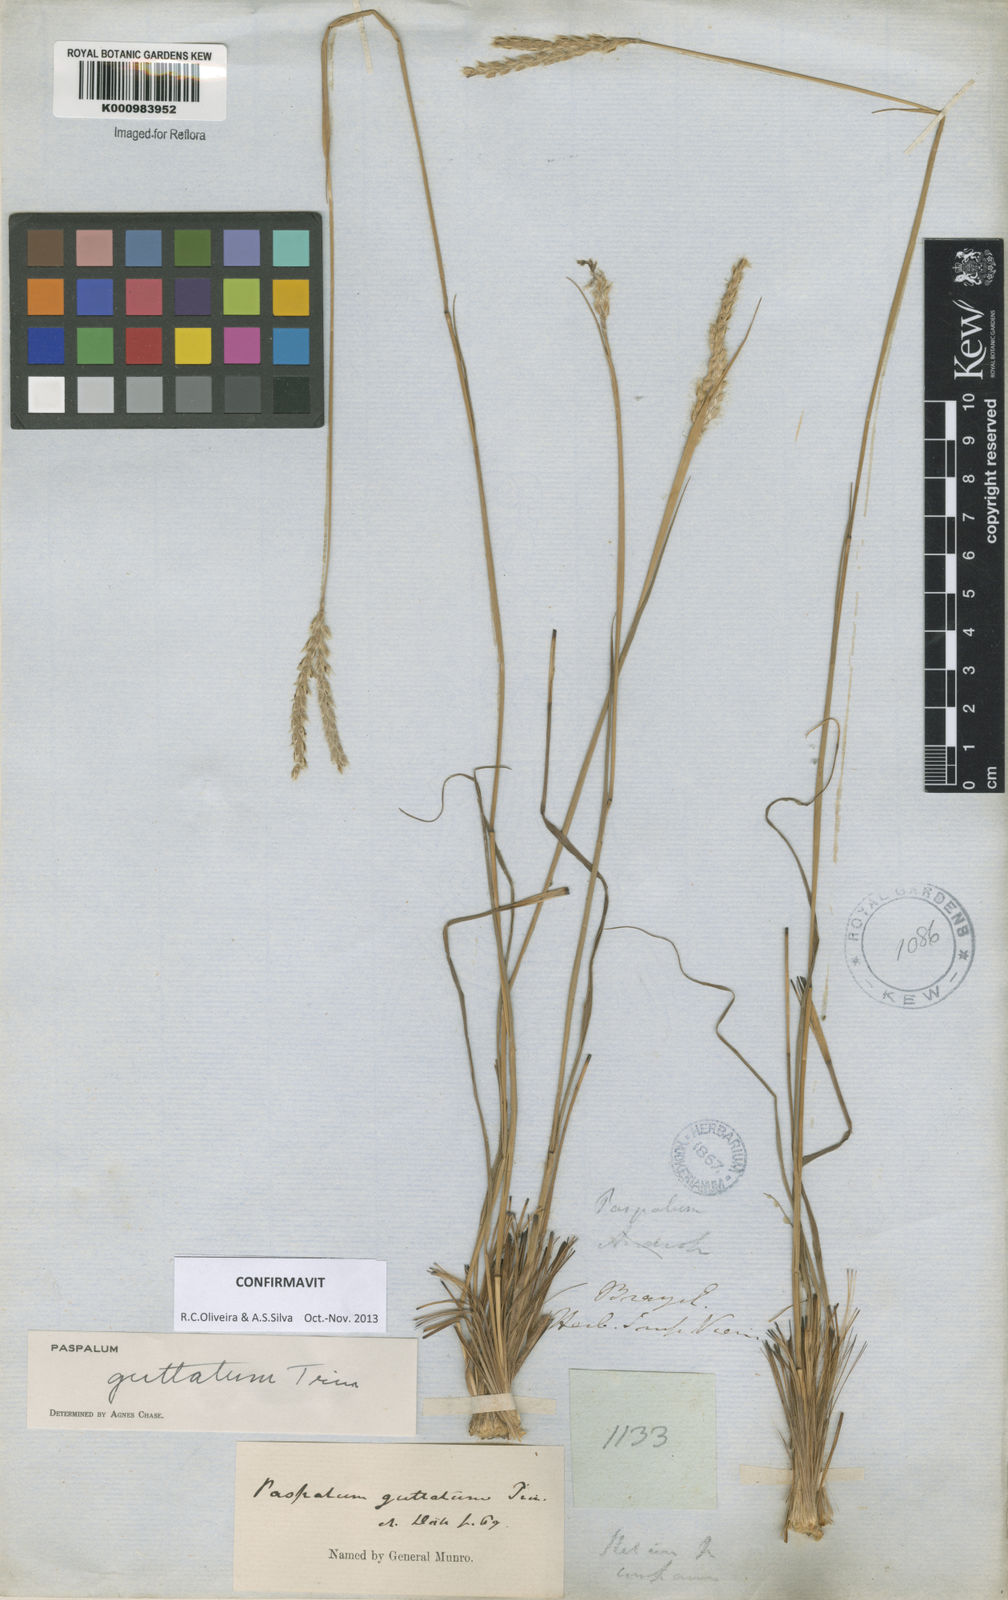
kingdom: Plantae
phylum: Tracheophyta
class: Liliopsida
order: Poales
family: Poaceae
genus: Paspalum
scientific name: Paspalum guttatum
